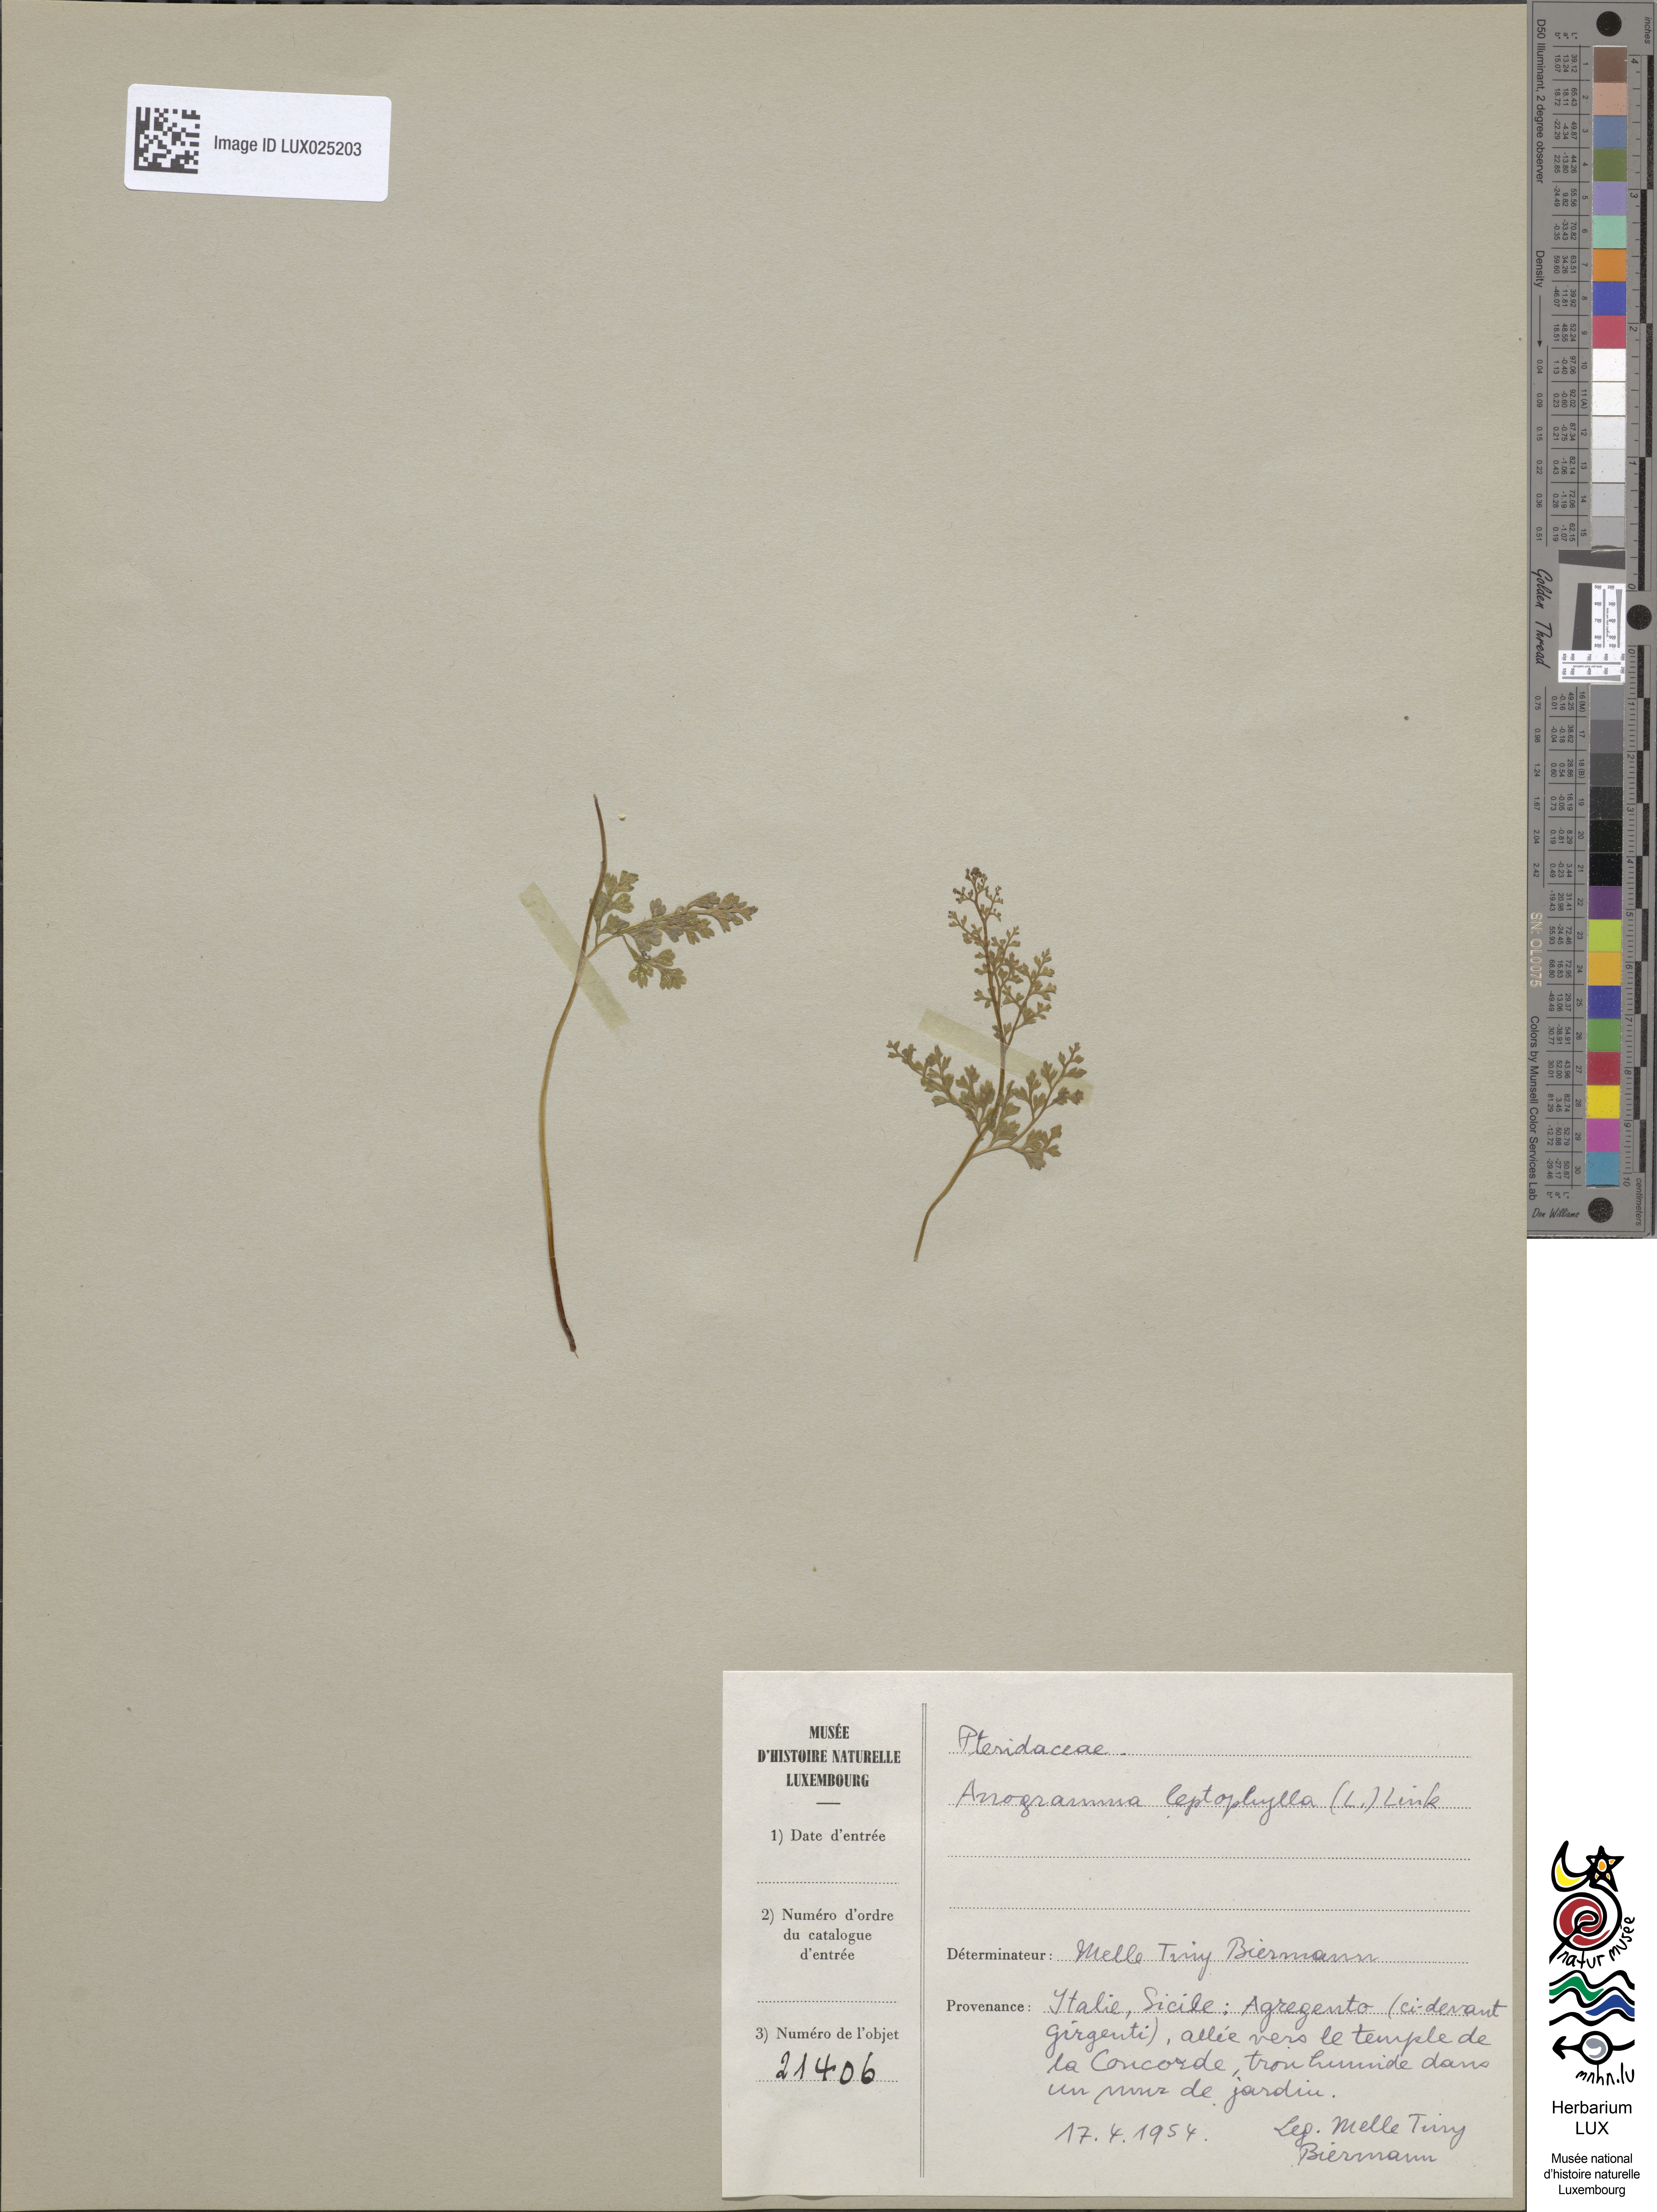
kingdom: Plantae
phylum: Tracheophyta
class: Polypodiopsida
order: Polypodiales
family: Pteridaceae
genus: Anogramma
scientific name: Anogramma leptophylla
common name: Jersey fern
